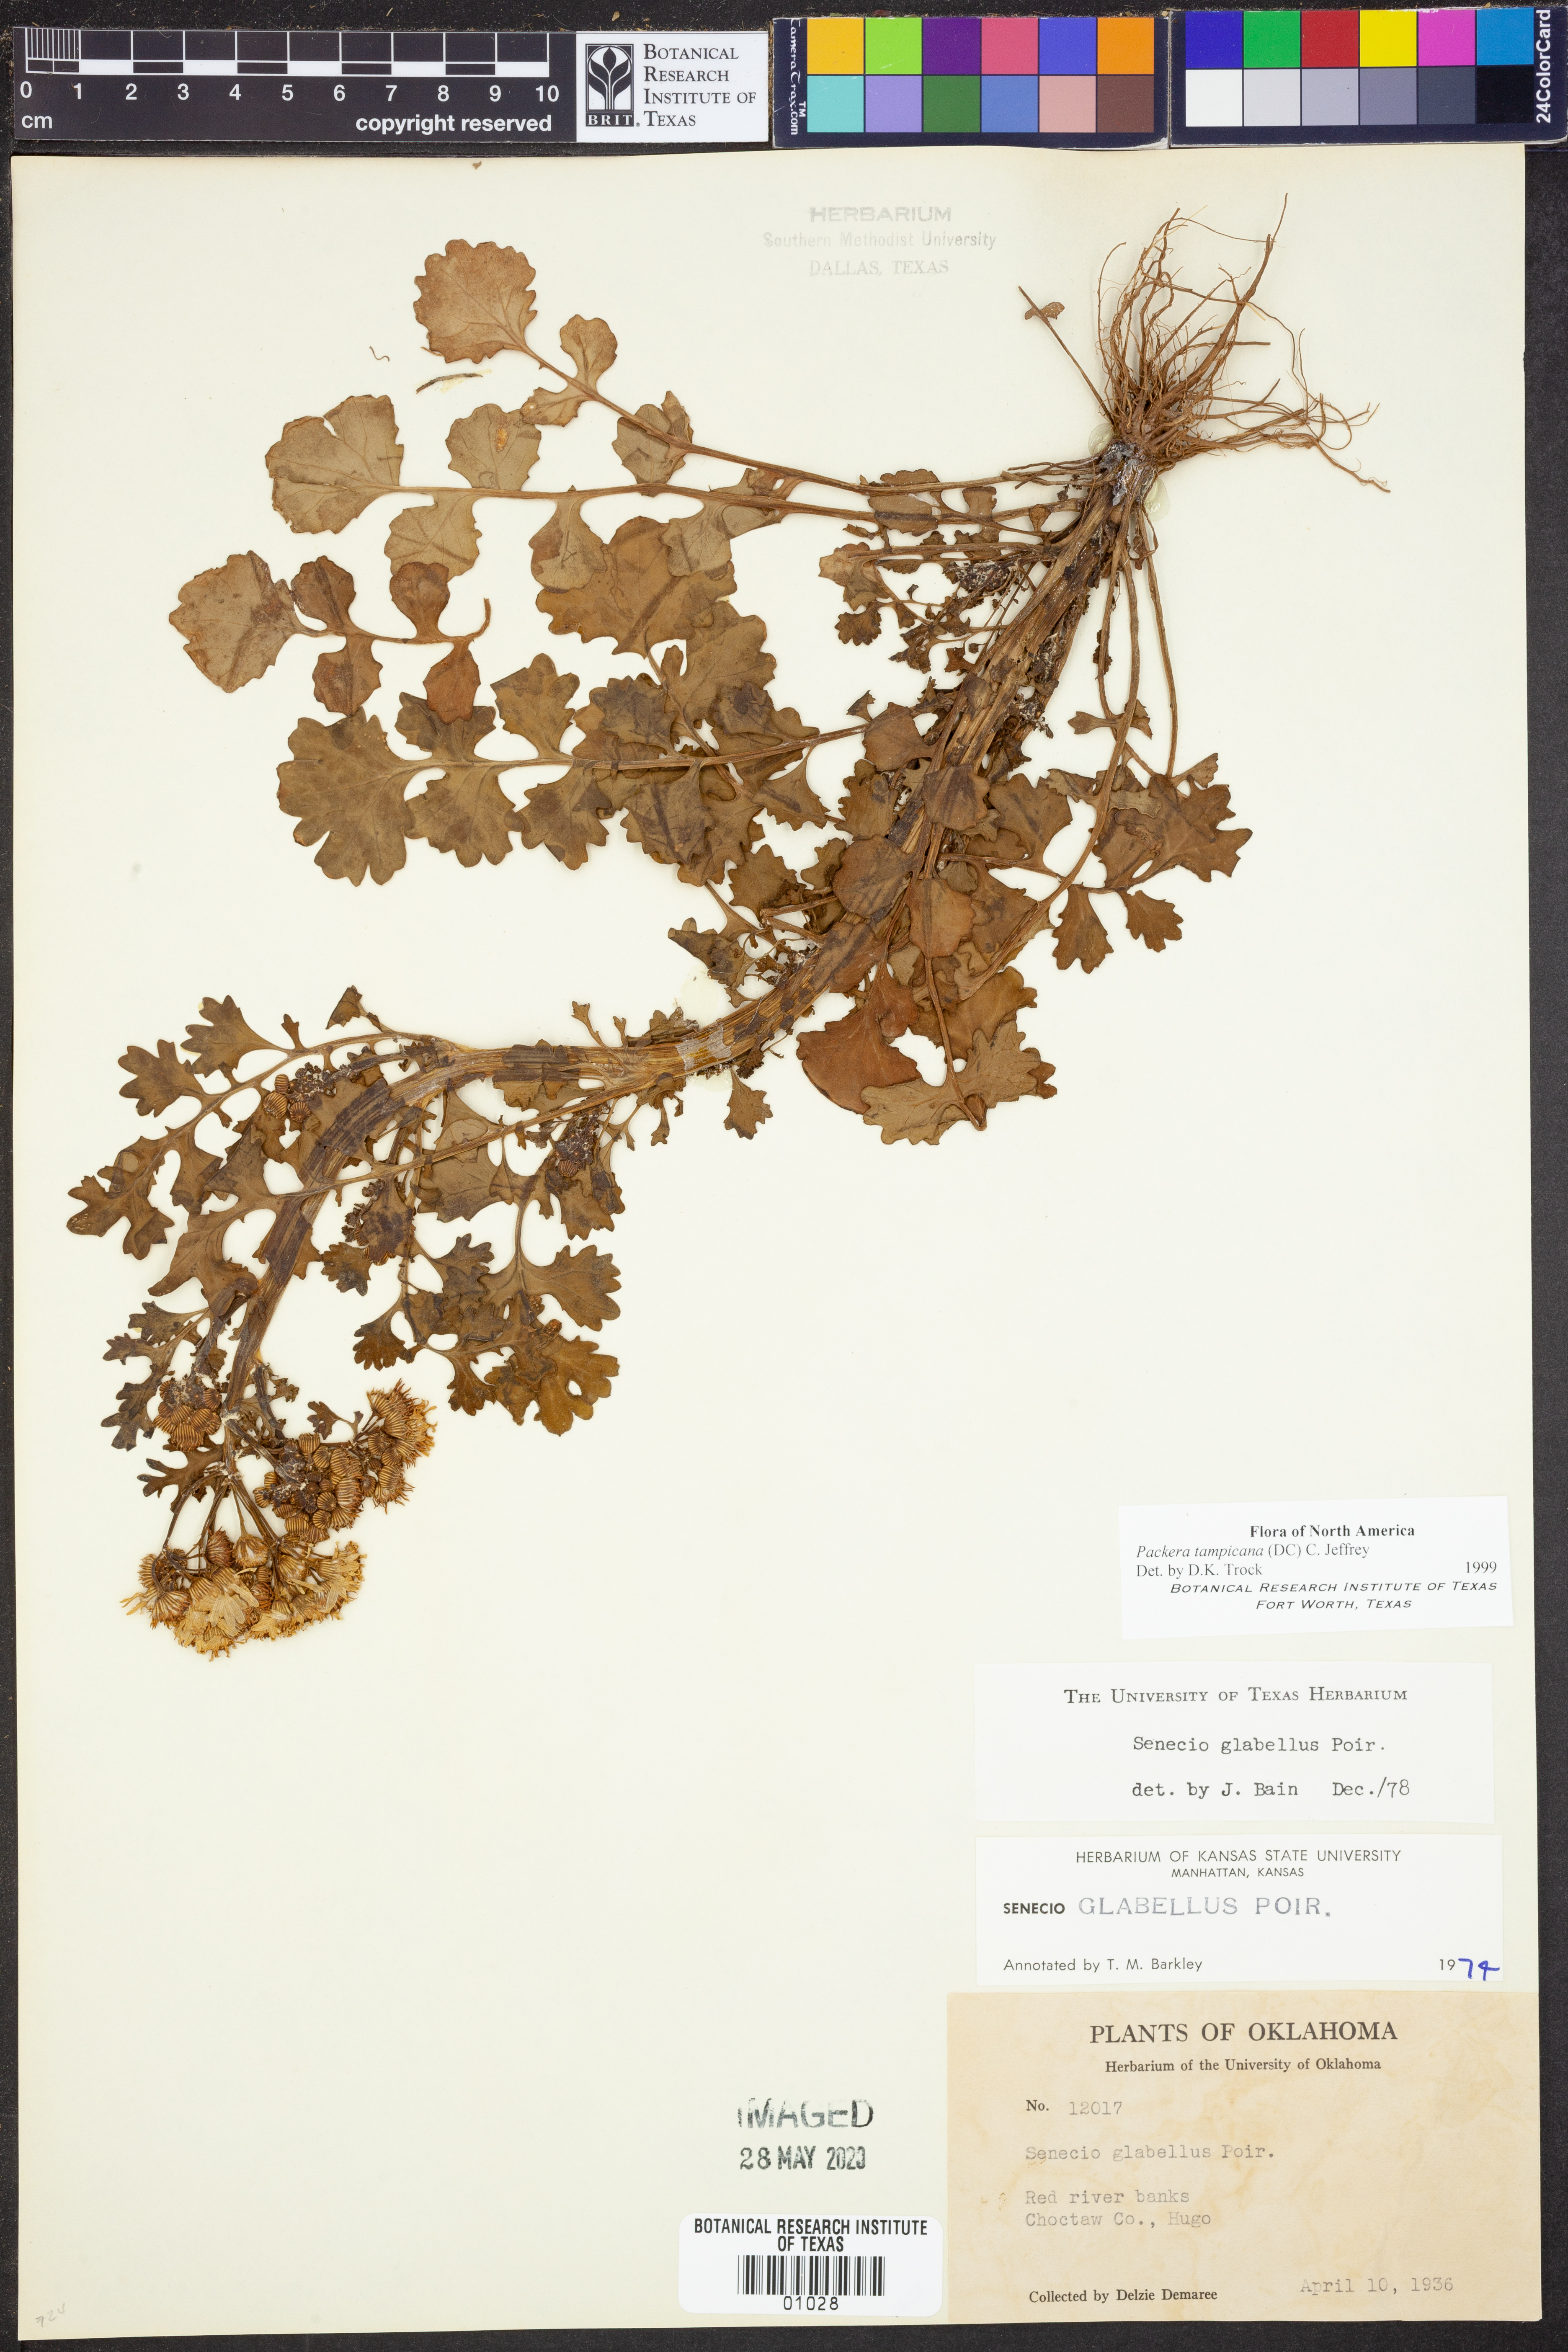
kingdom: Plantae
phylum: Tracheophyta
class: Magnoliopsida
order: Asterales
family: Asteraceae
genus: Packera
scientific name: Packera tampicana
